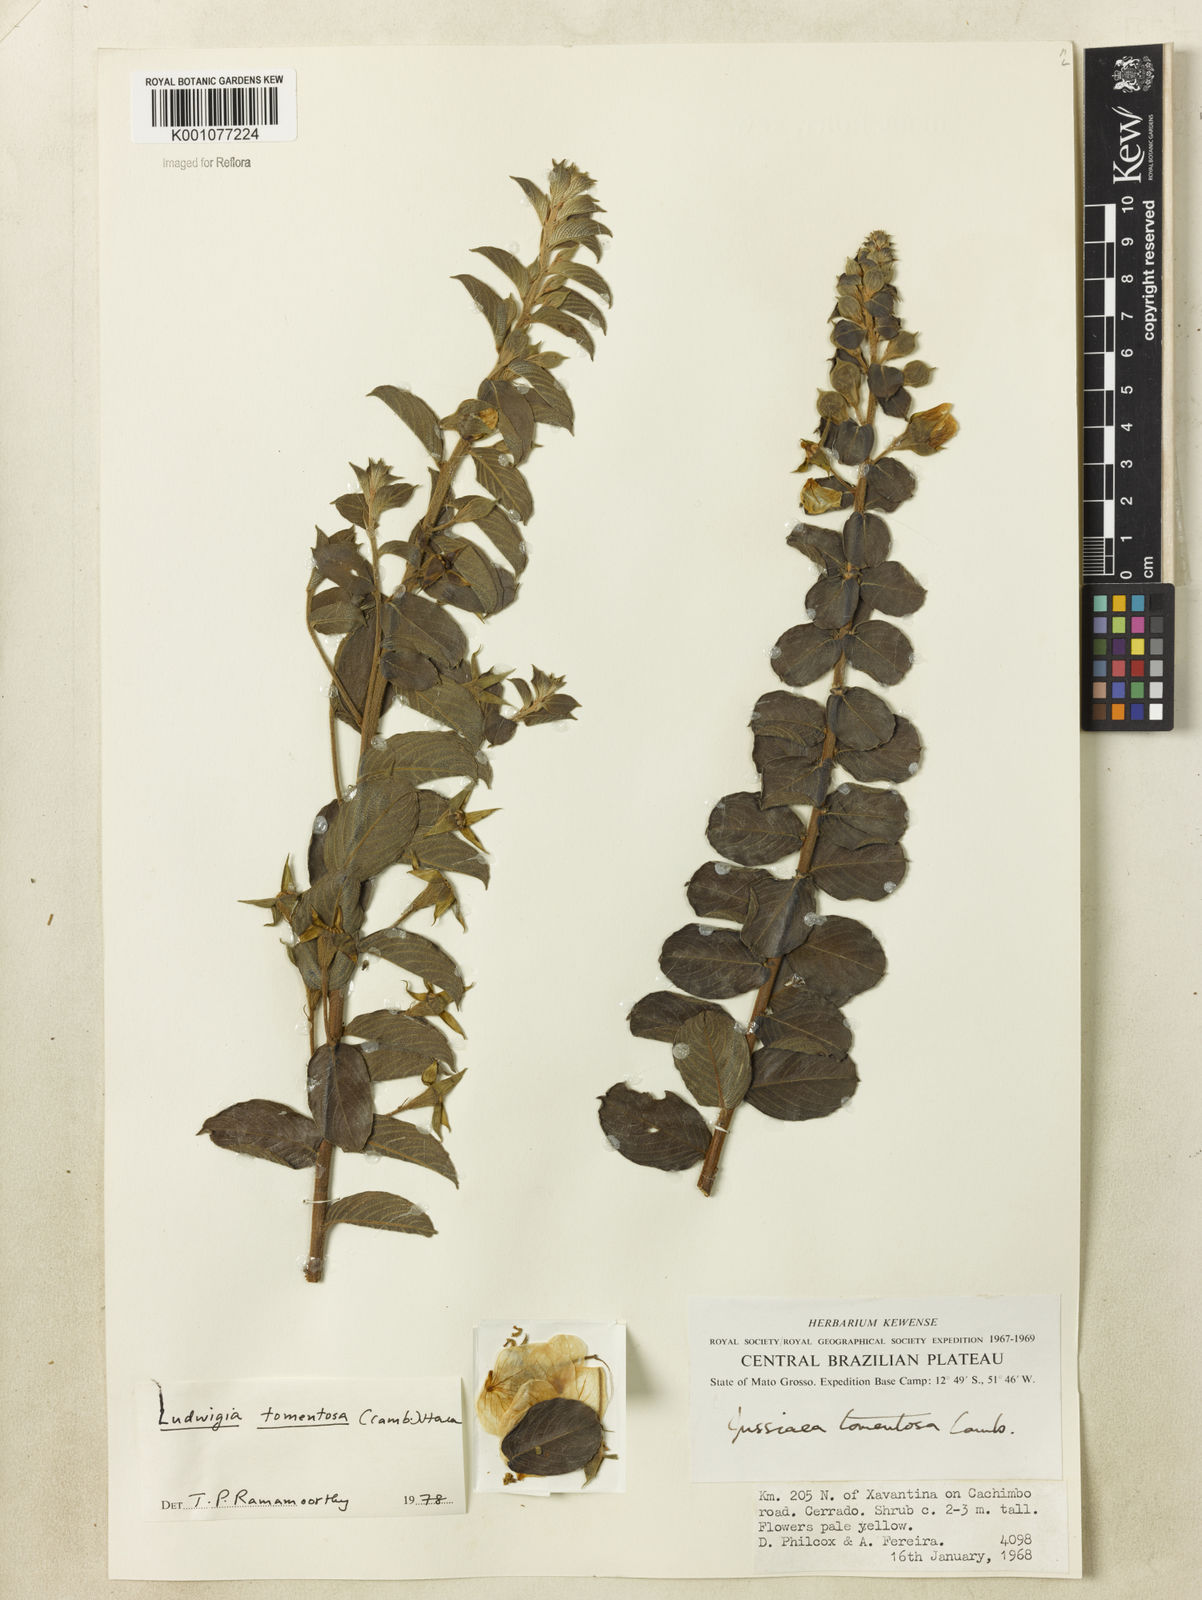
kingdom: Plantae
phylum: Tracheophyta
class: Magnoliopsida
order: Myrtales
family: Onagraceae
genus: Ludwigia
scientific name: Ludwigia tomentosa
